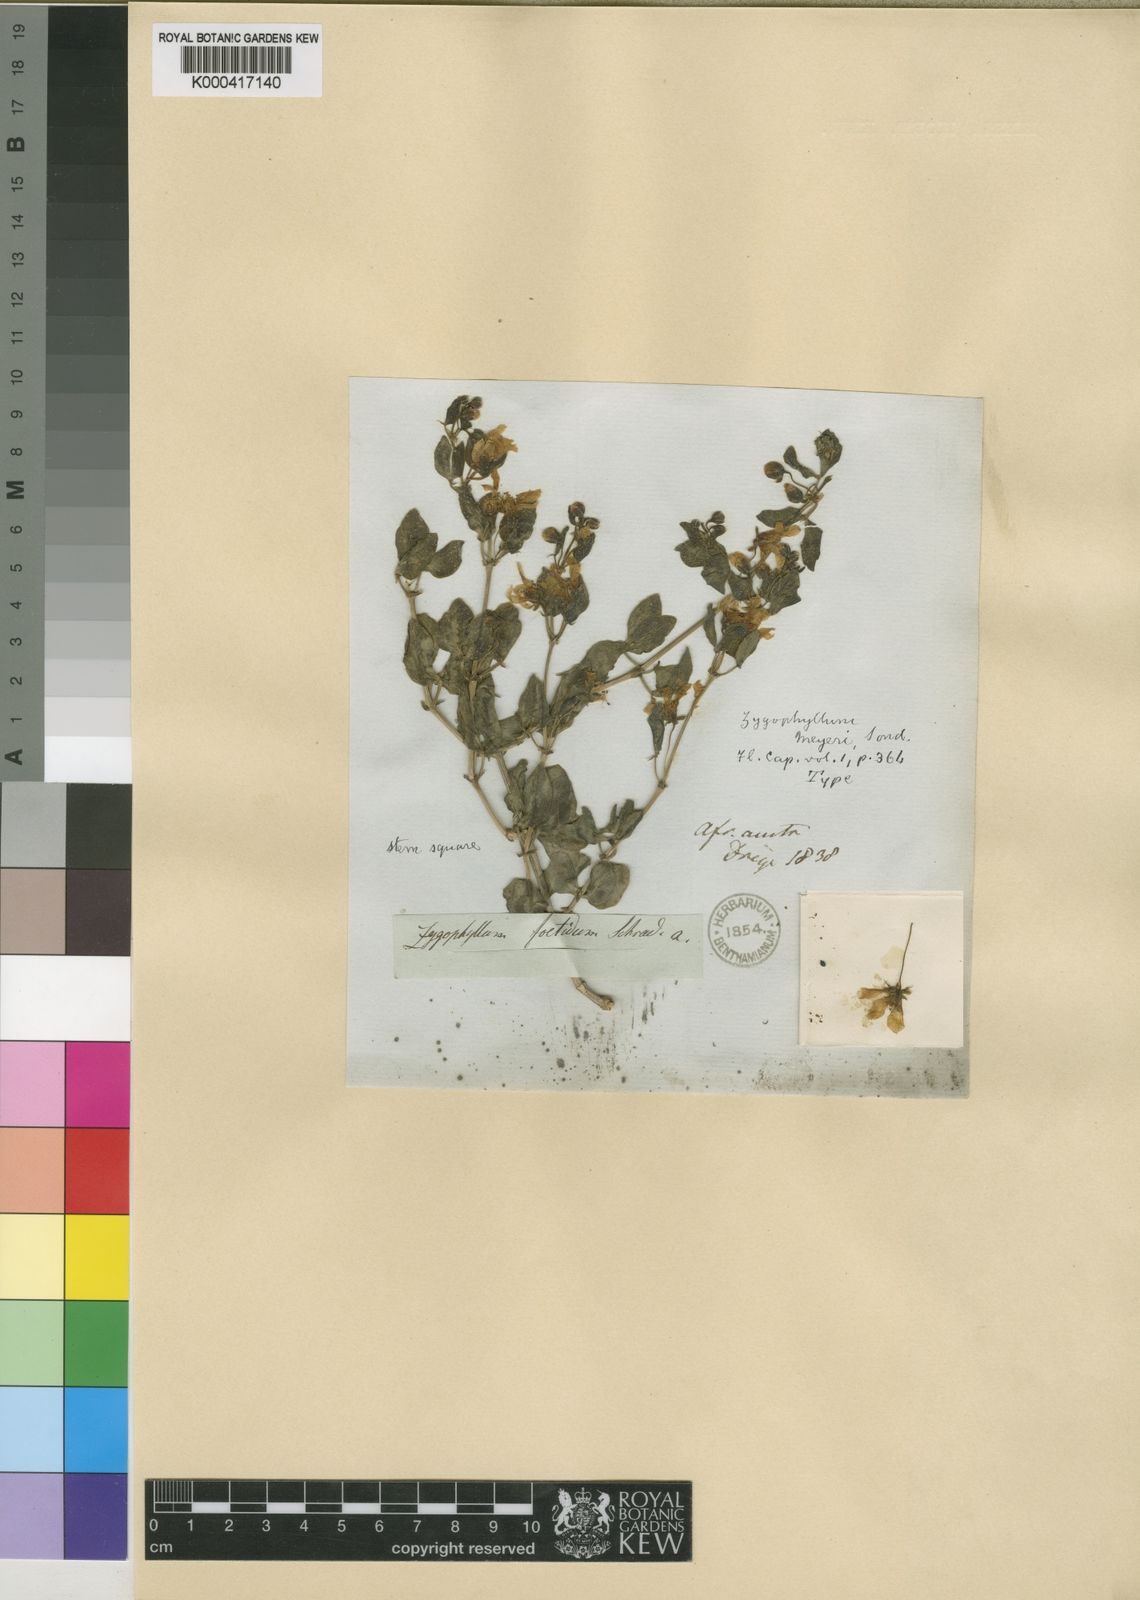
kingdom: Plantae
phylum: Tracheophyta
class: Magnoliopsida
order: Zygophyllales
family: Zygophyllaceae
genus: Roepera
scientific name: Roepera foetida
